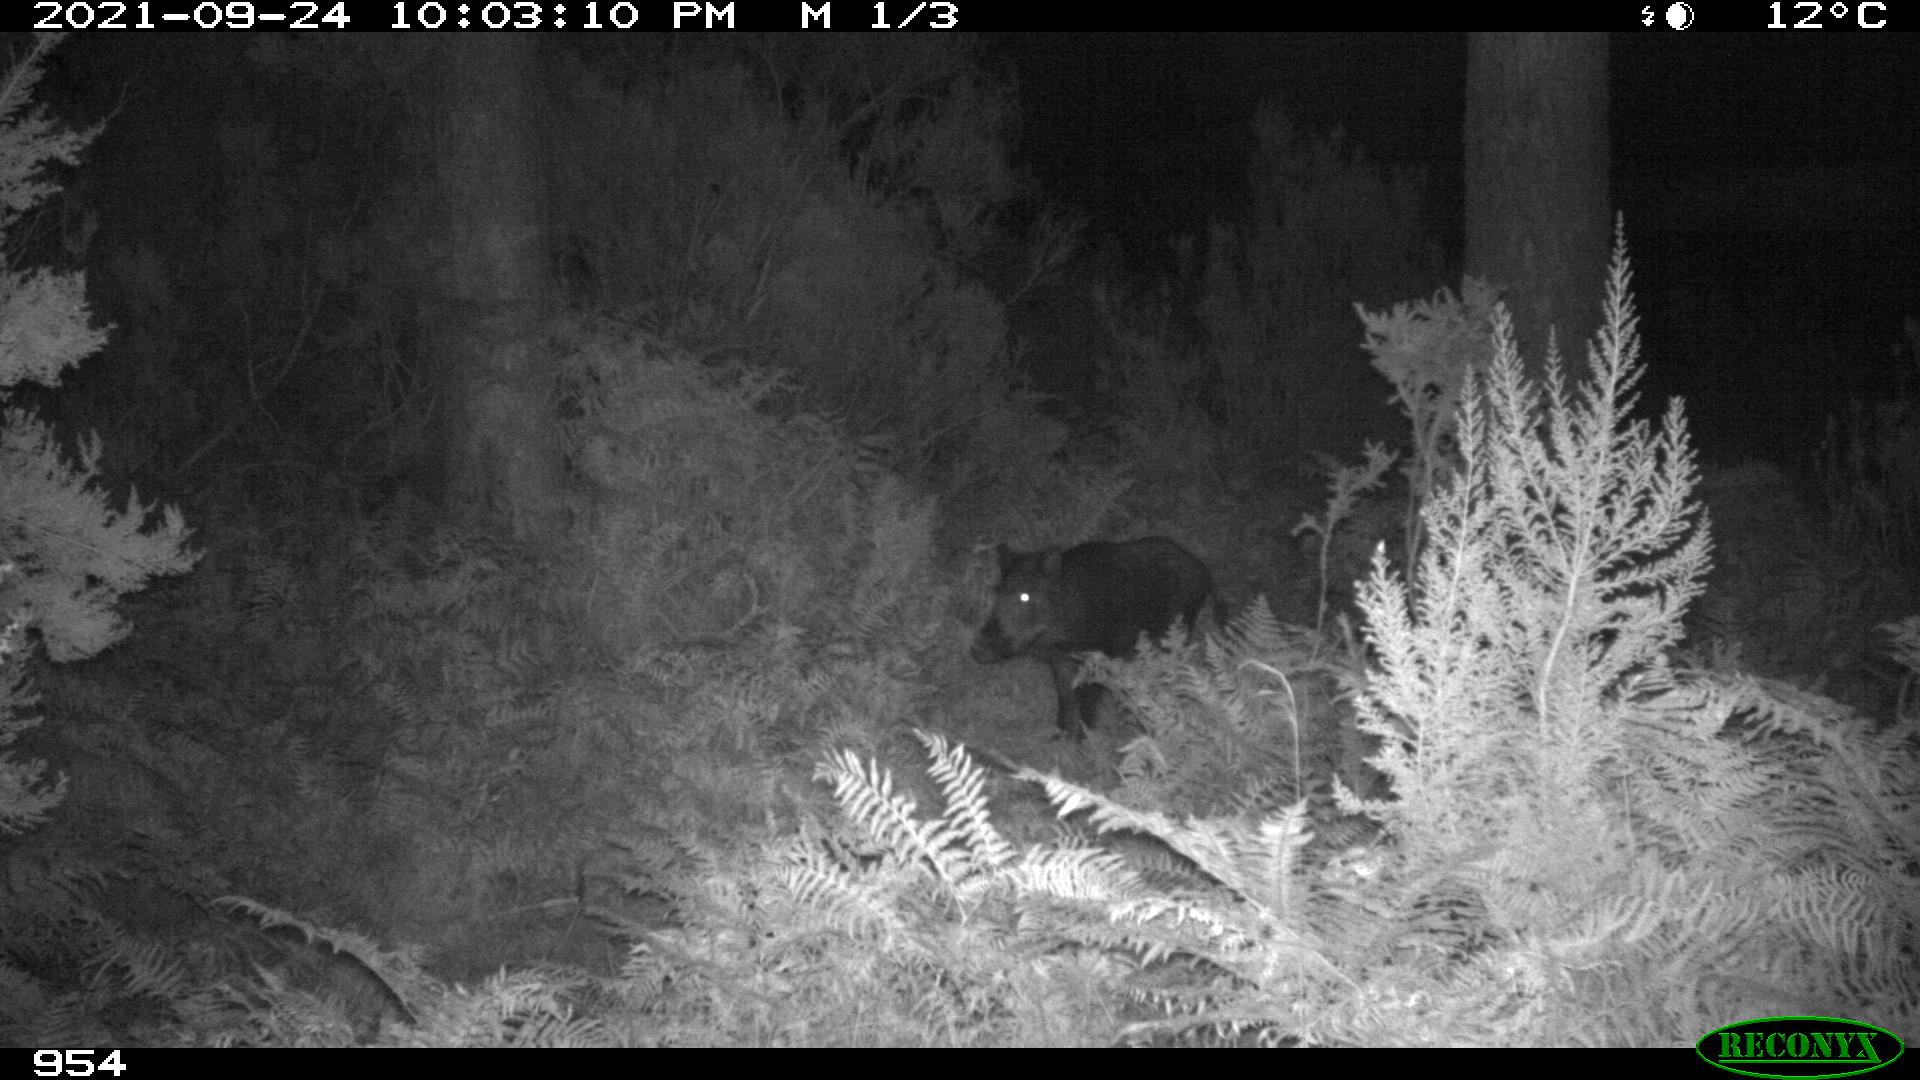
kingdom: Animalia
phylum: Chordata
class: Mammalia
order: Artiodactyla
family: Suidae
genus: Sus
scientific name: Sus scrofa
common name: Wild boar
